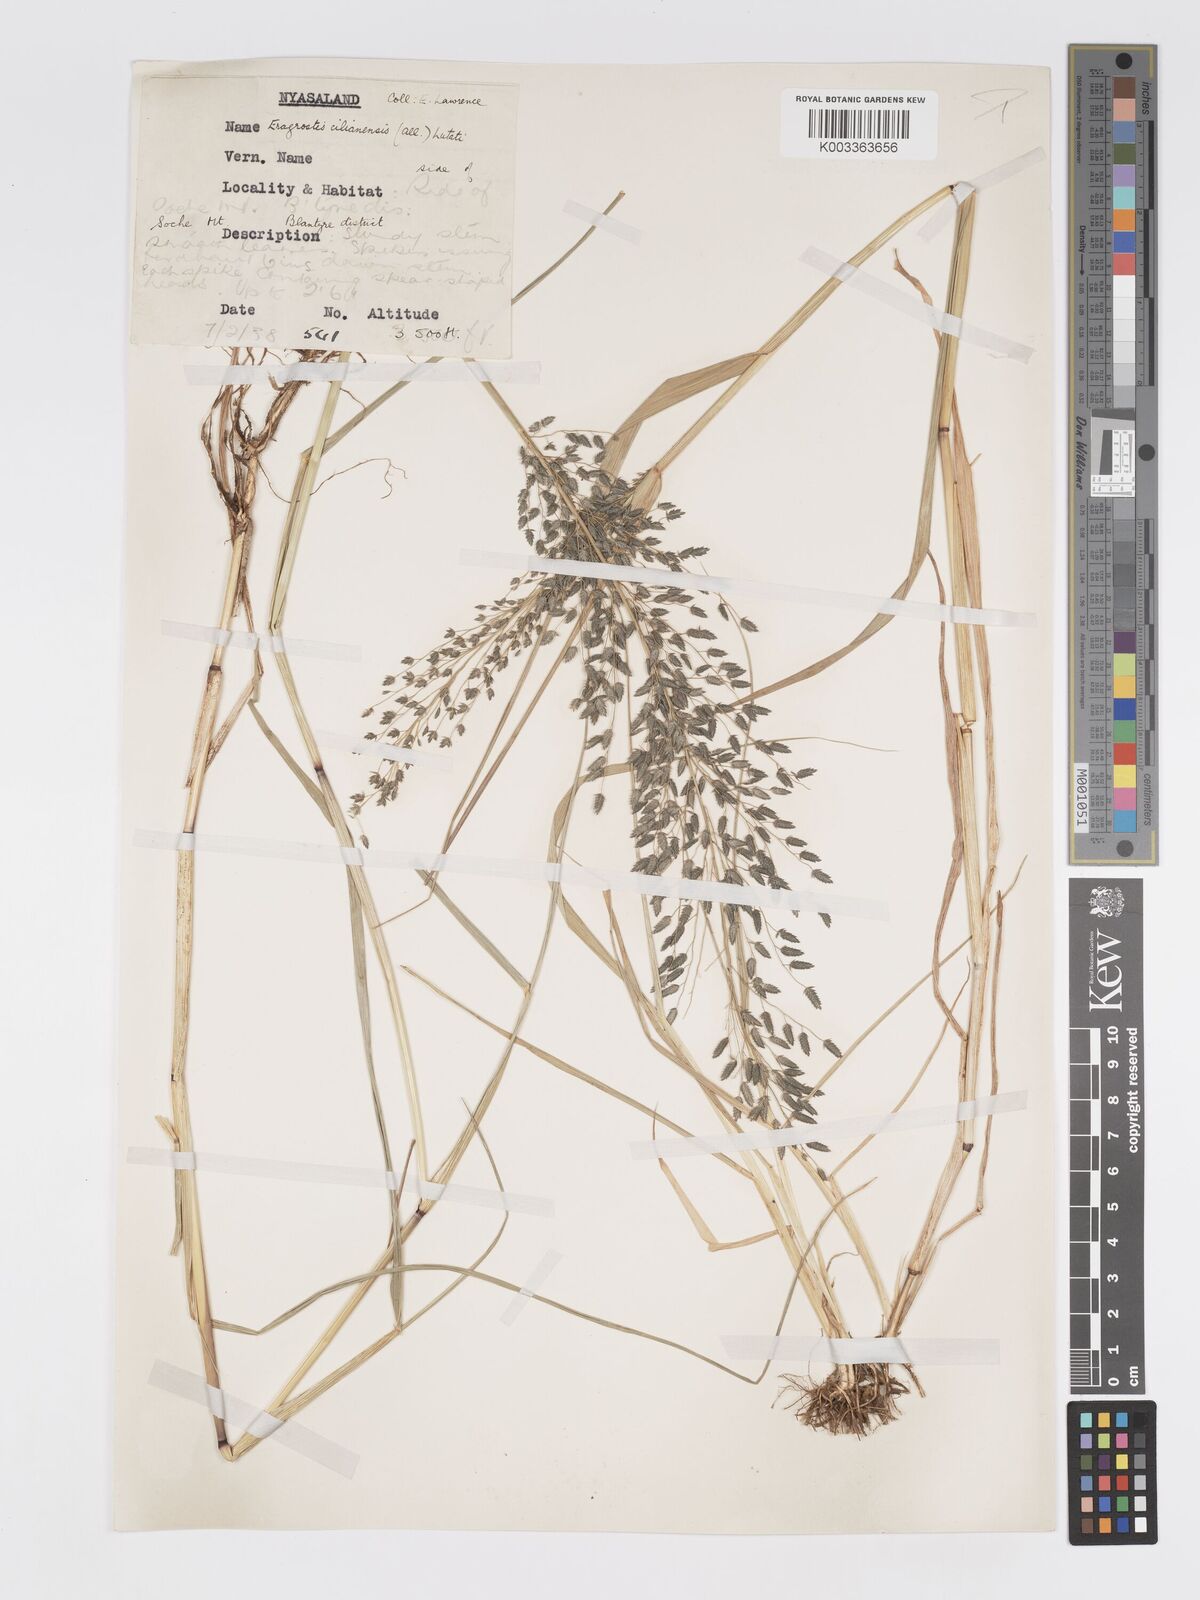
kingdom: Plantae
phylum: Tracheophyta
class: Liliopsida
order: Poales
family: Poaceae
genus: Eragrostis
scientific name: Eragrostis cilianensis
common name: Stinkgrass
